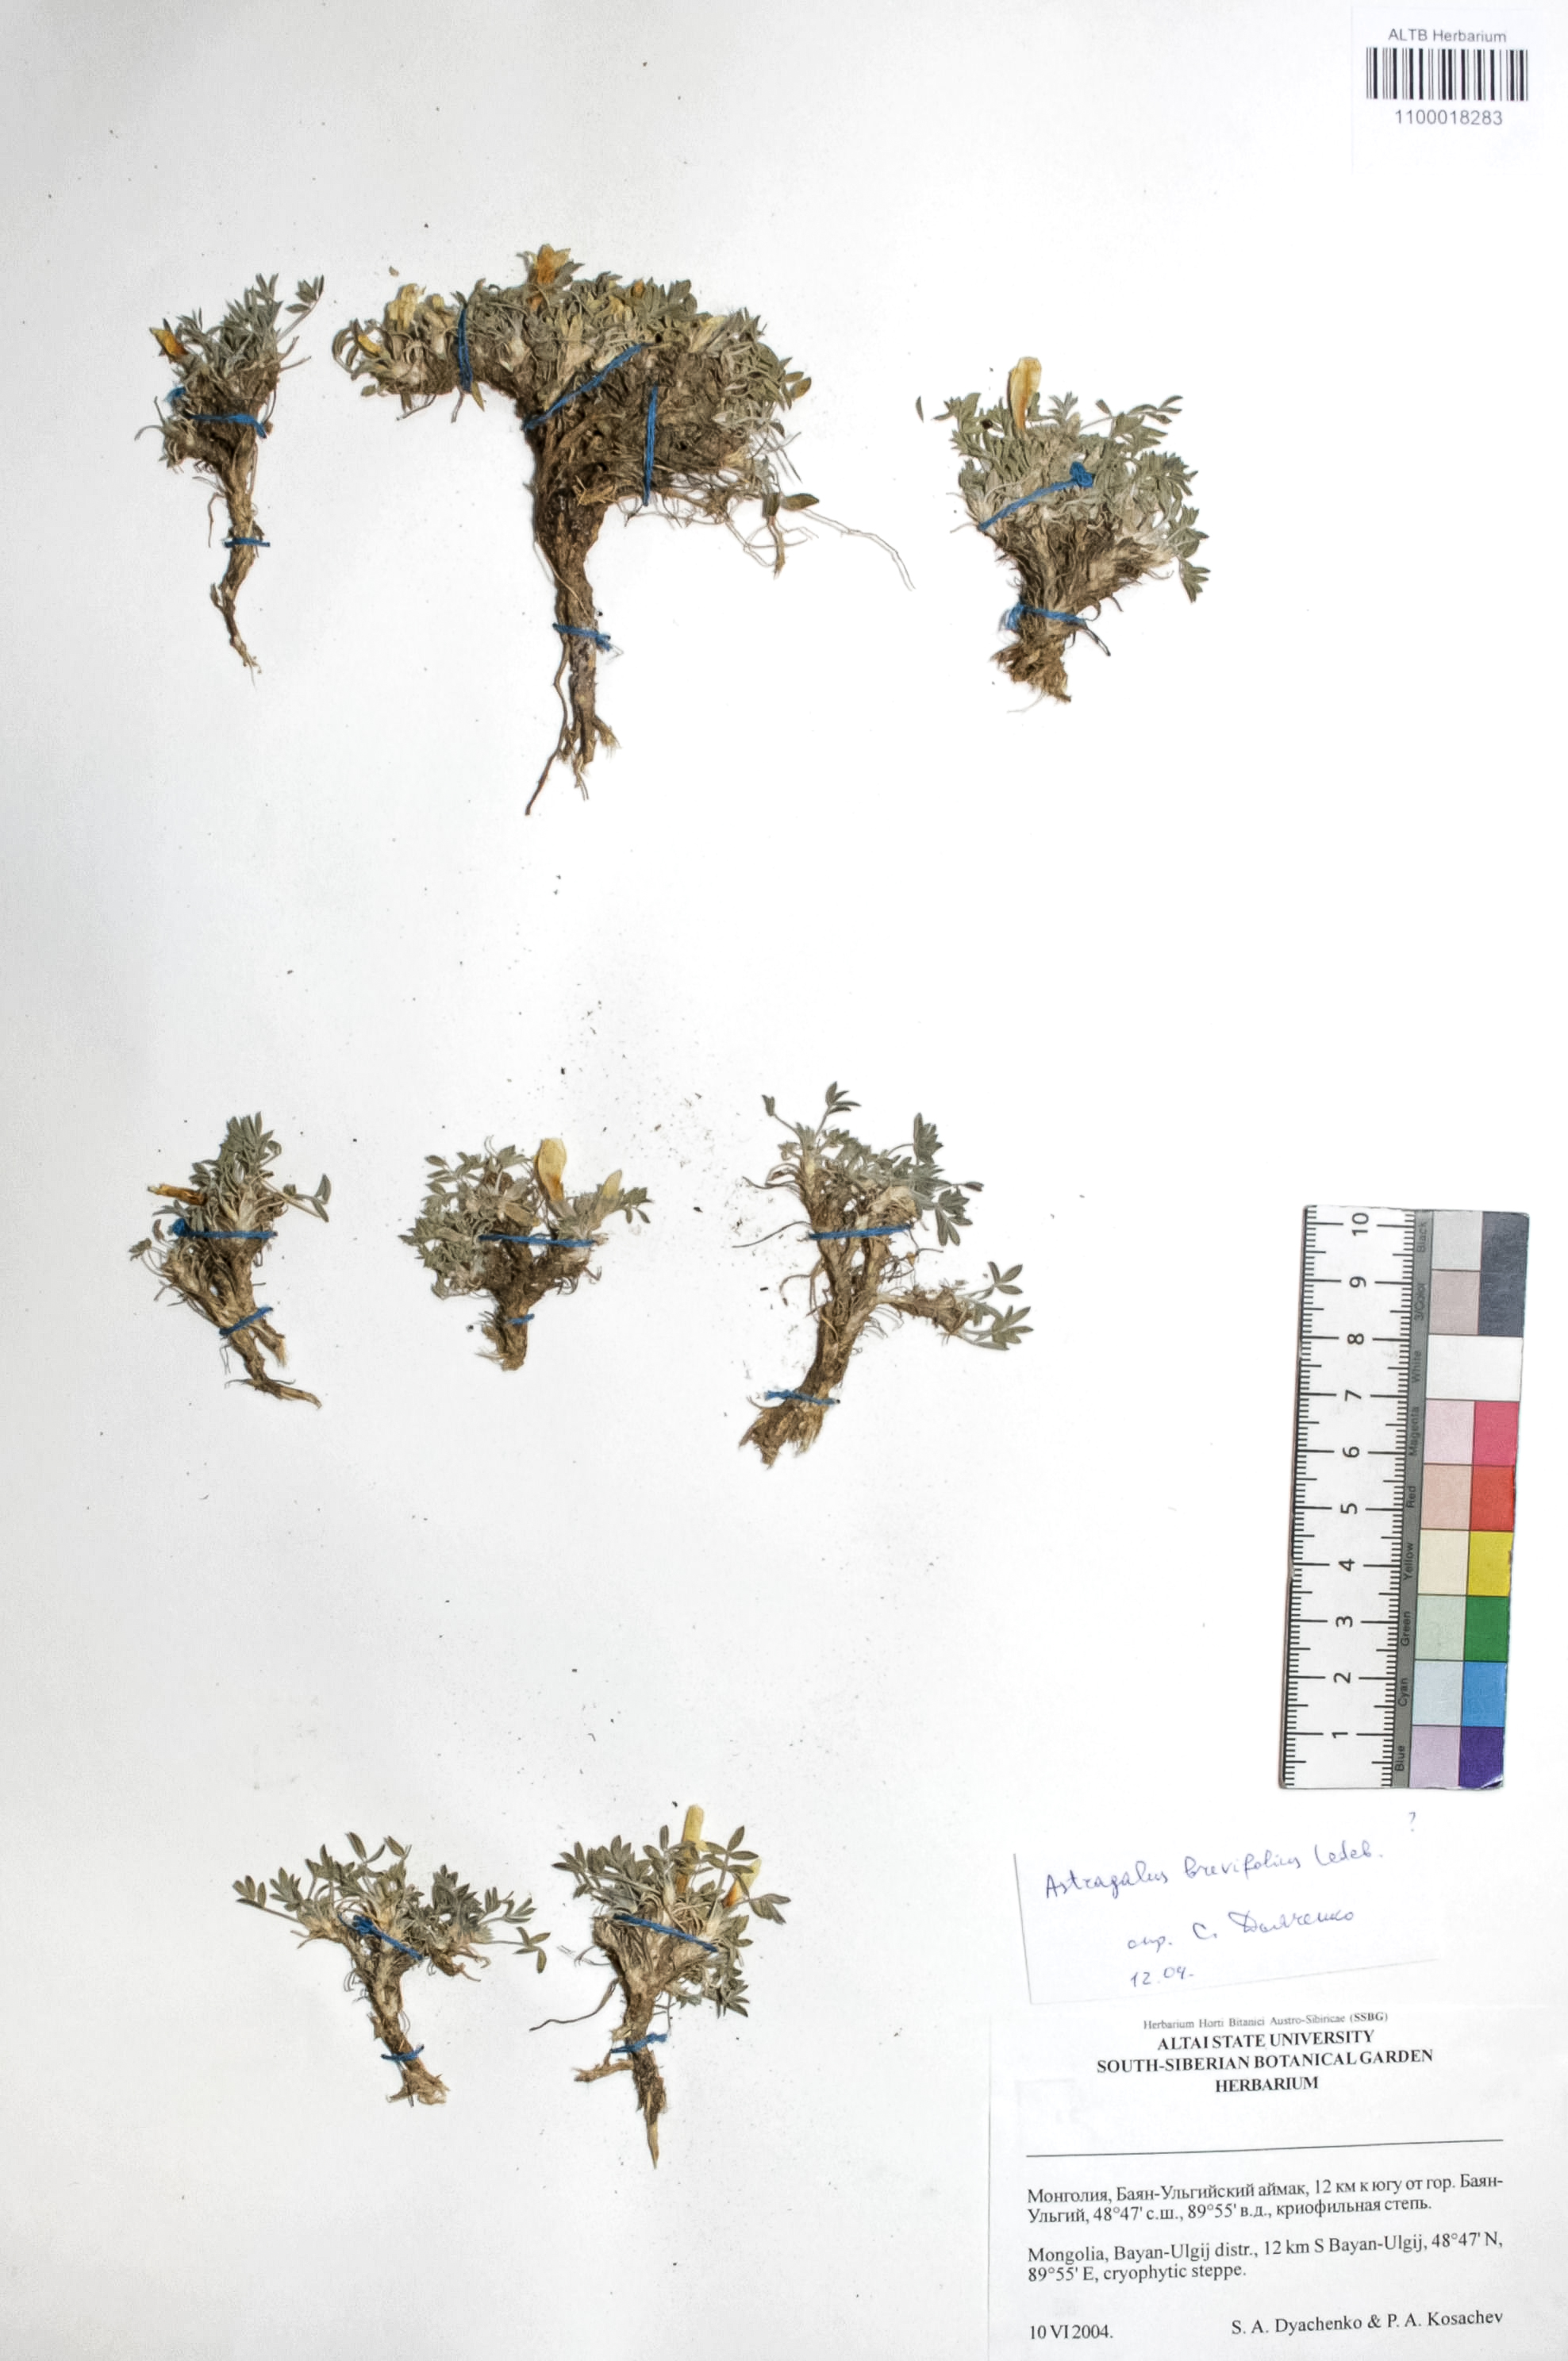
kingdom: Plantae
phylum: Tracheophyta
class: Magnoliopsida
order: Fabales
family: Fabaceae
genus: Astragalus
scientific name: Astragalus brevifolius
